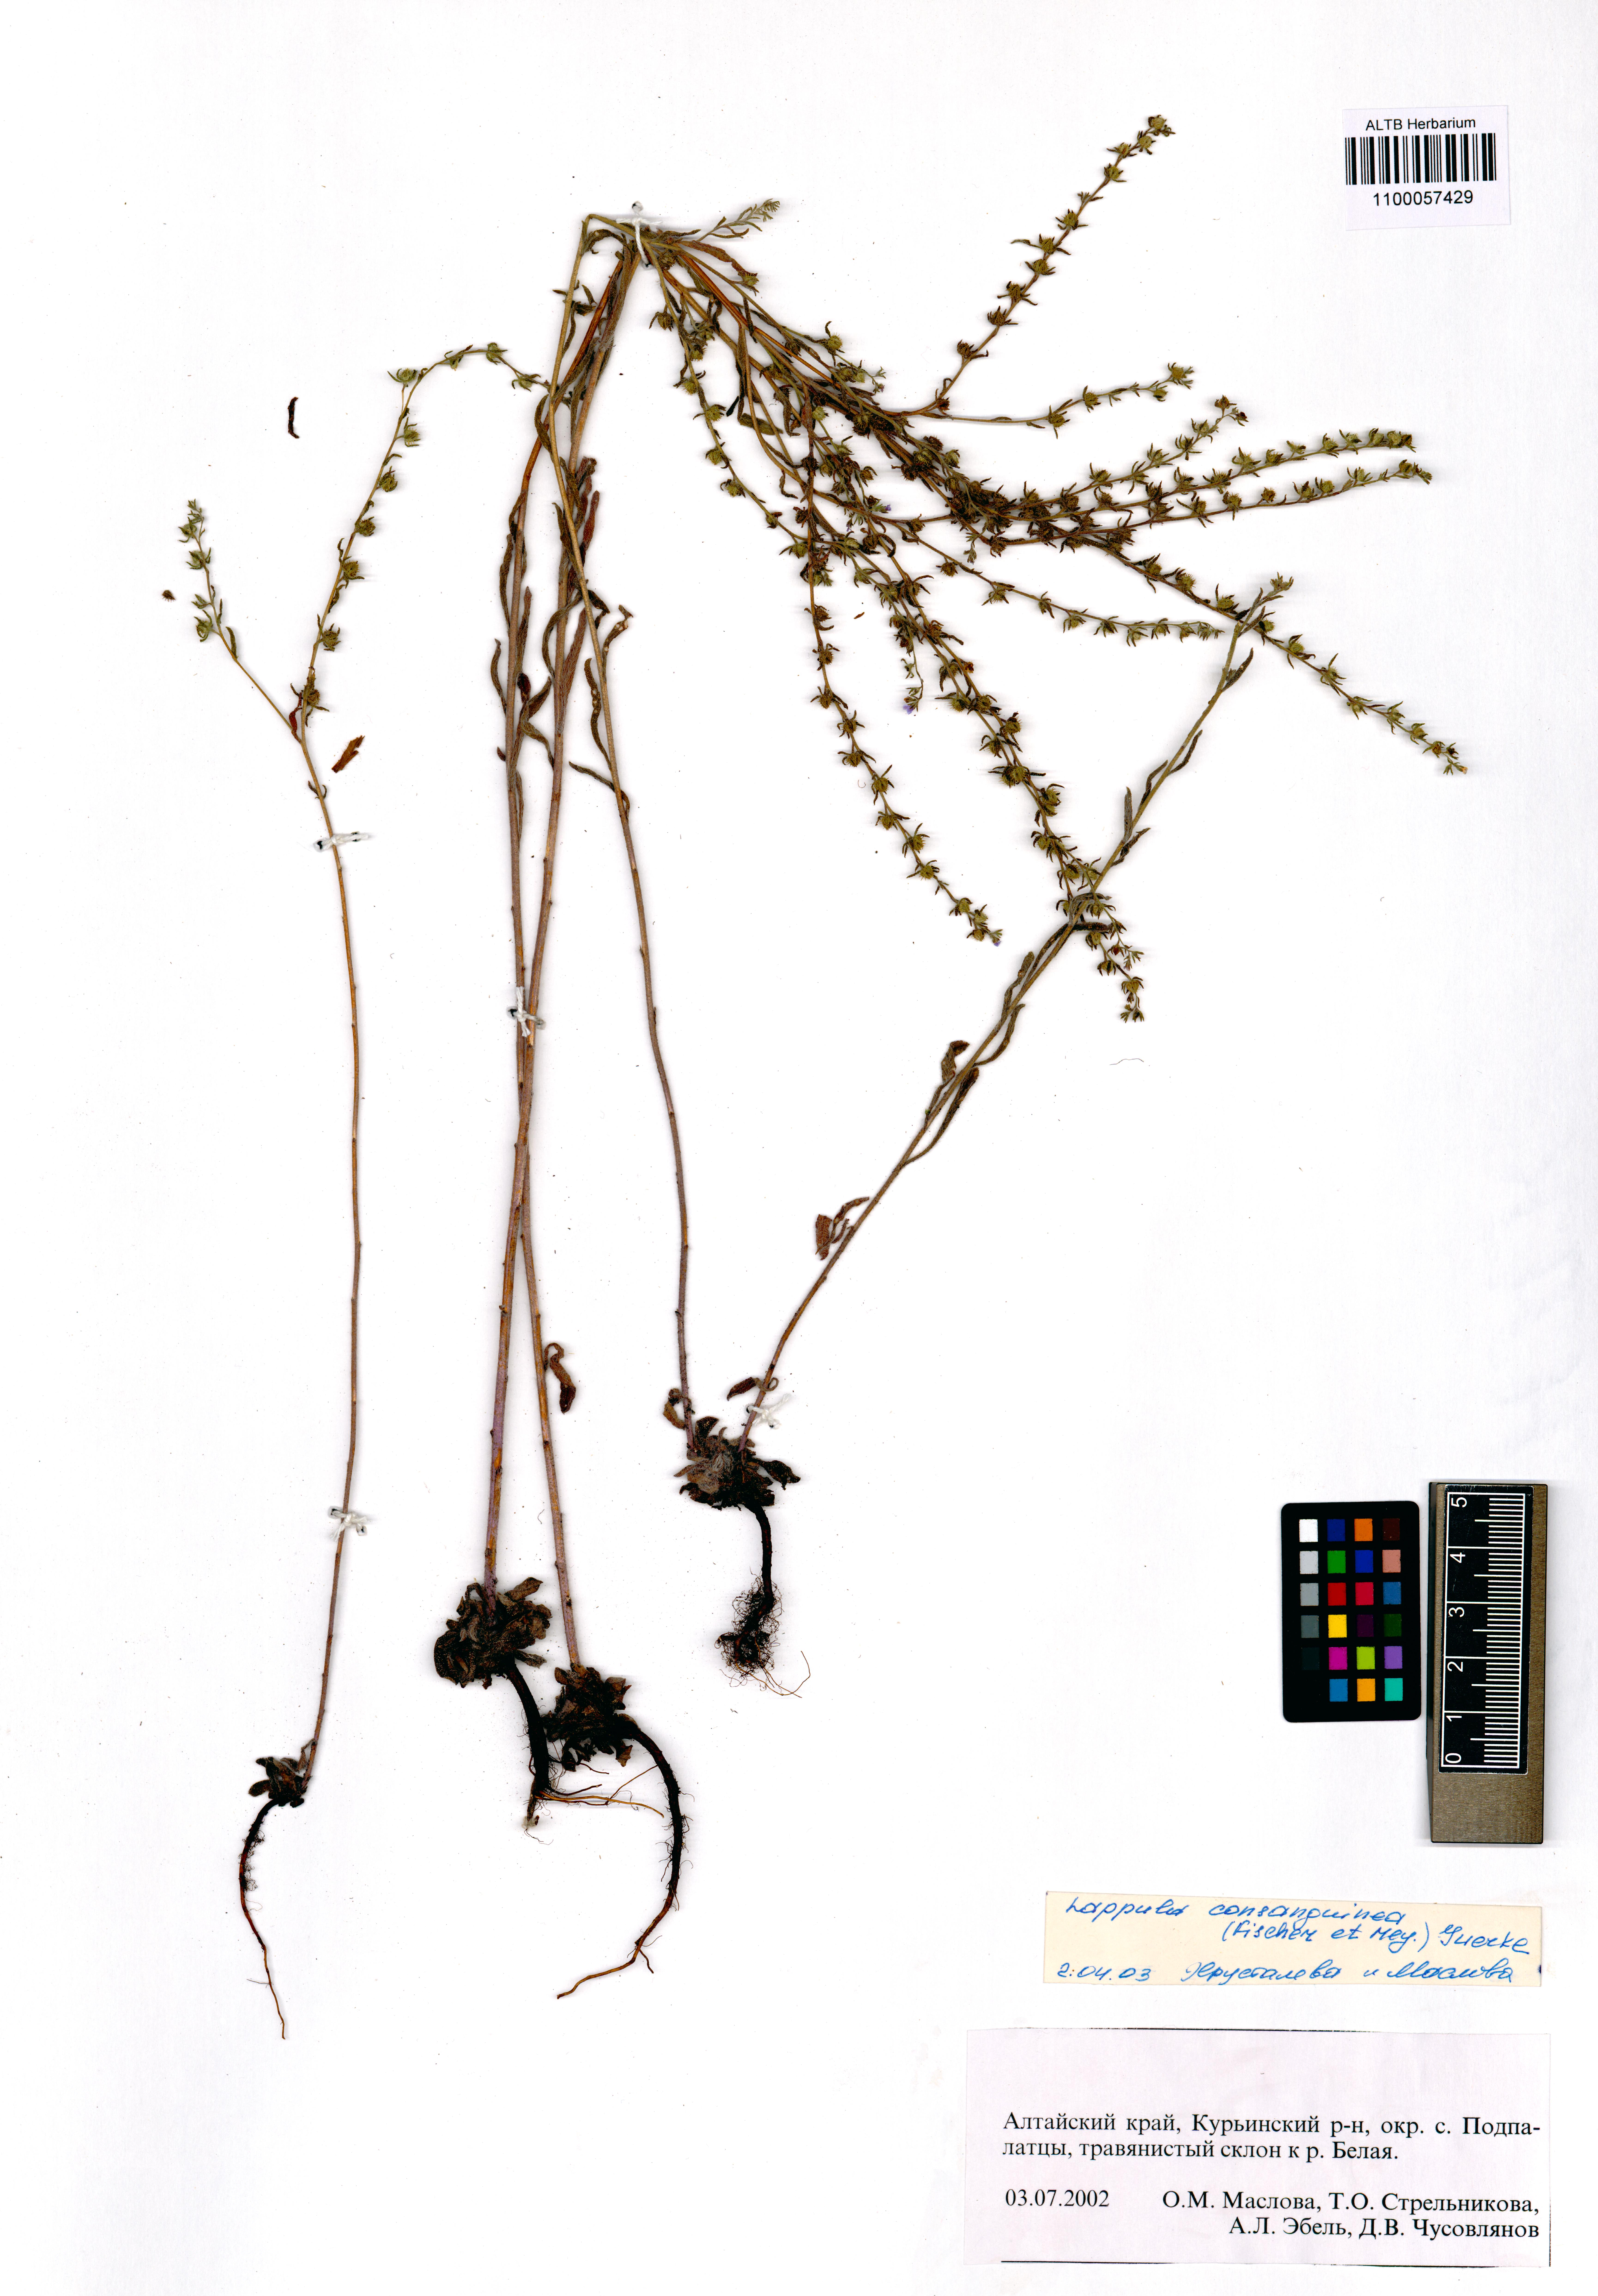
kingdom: Plantae
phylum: Tracheophyta
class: Magnoliopsida
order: Boraginales
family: Boraginaceae
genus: Lappula
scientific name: Lappula squarrosa
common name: European stickseed
